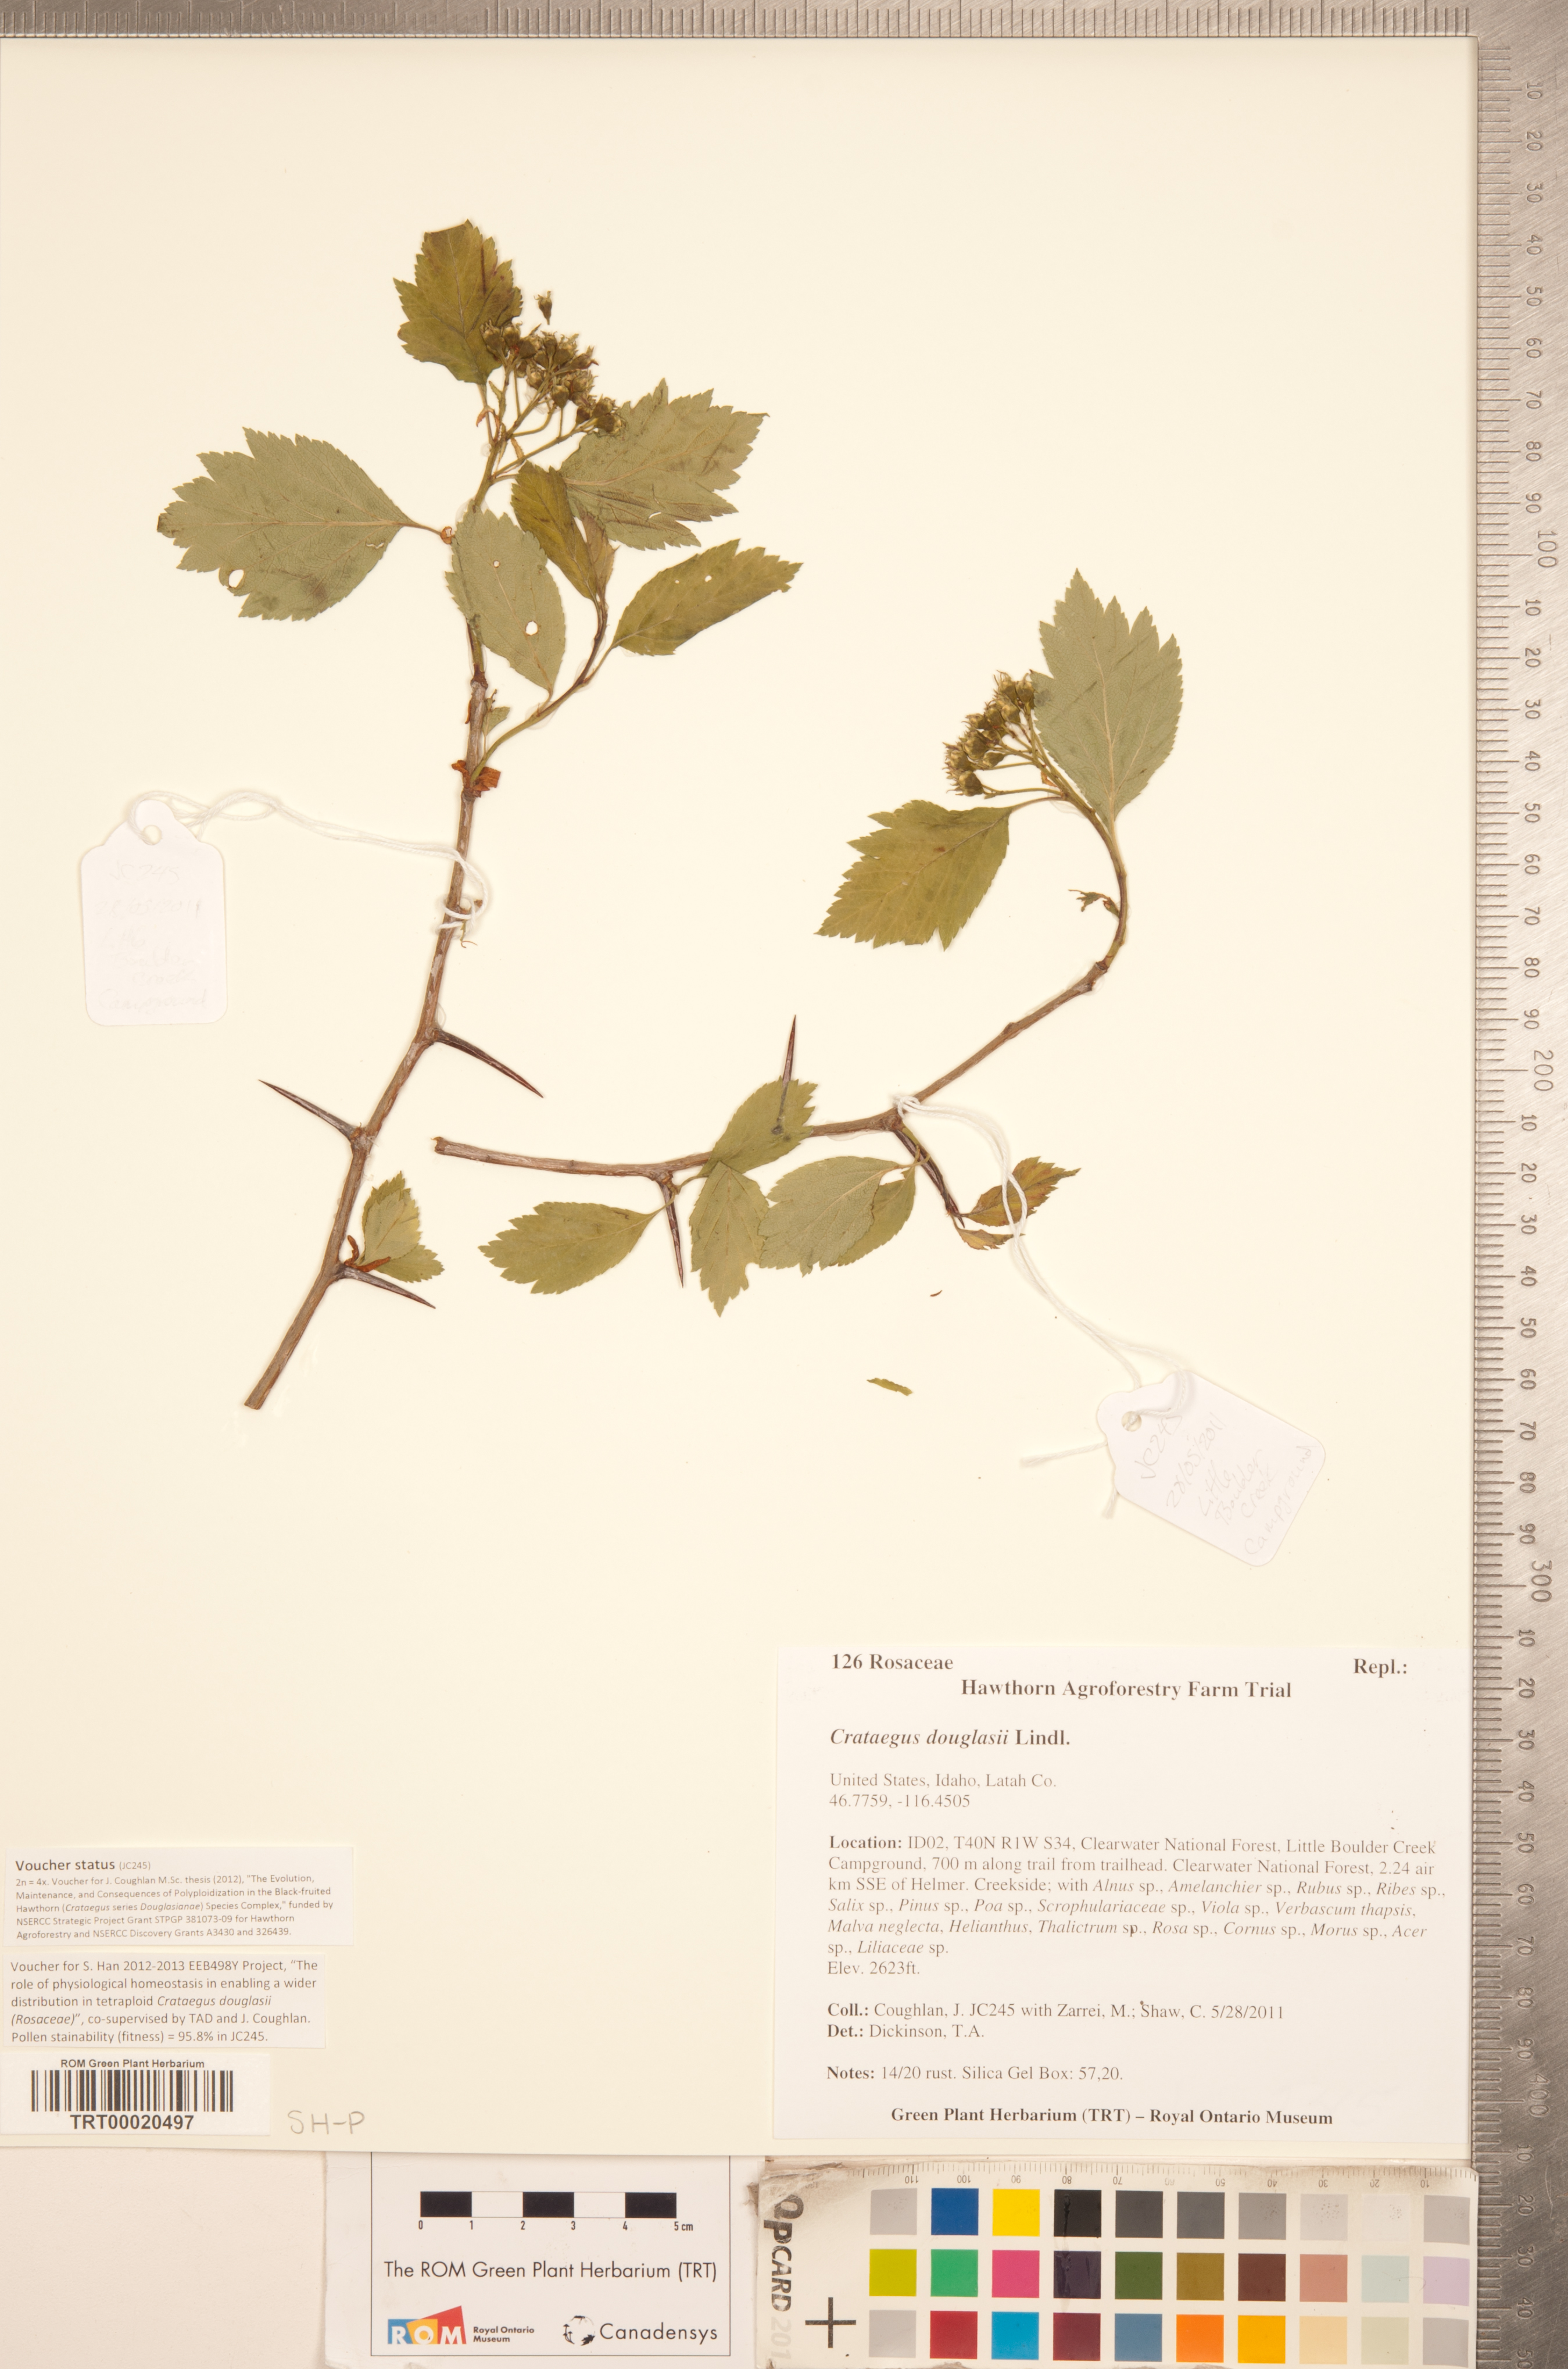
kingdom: Plantae
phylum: Tracheophyta
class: Magnoliopsida
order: Rosales
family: Rosaceae
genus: Crataegus
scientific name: Crataegus douglasii
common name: Black hawthorn
